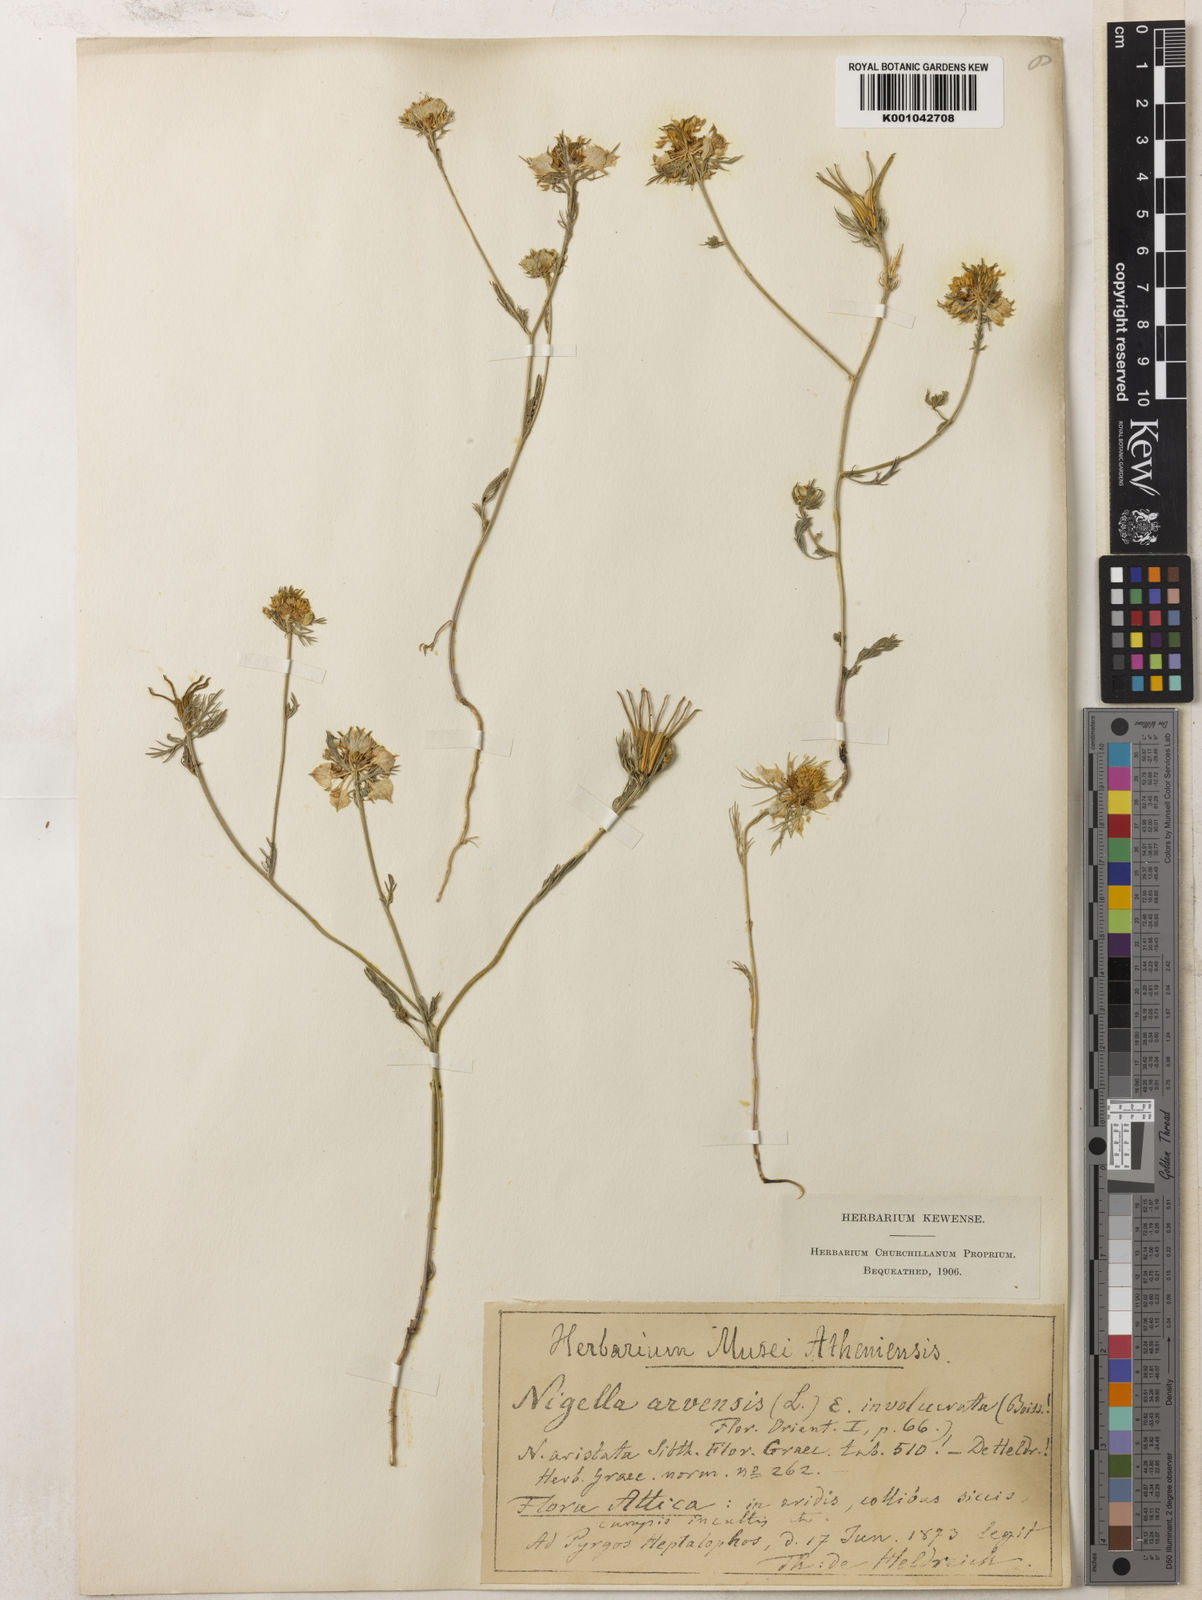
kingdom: Plantae
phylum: Tracheophyta
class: Magnoliopsida
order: Ranunculales
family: Ranunculaceae
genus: Nigella
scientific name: Nigella arvensis
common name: Wild fennel-flower
